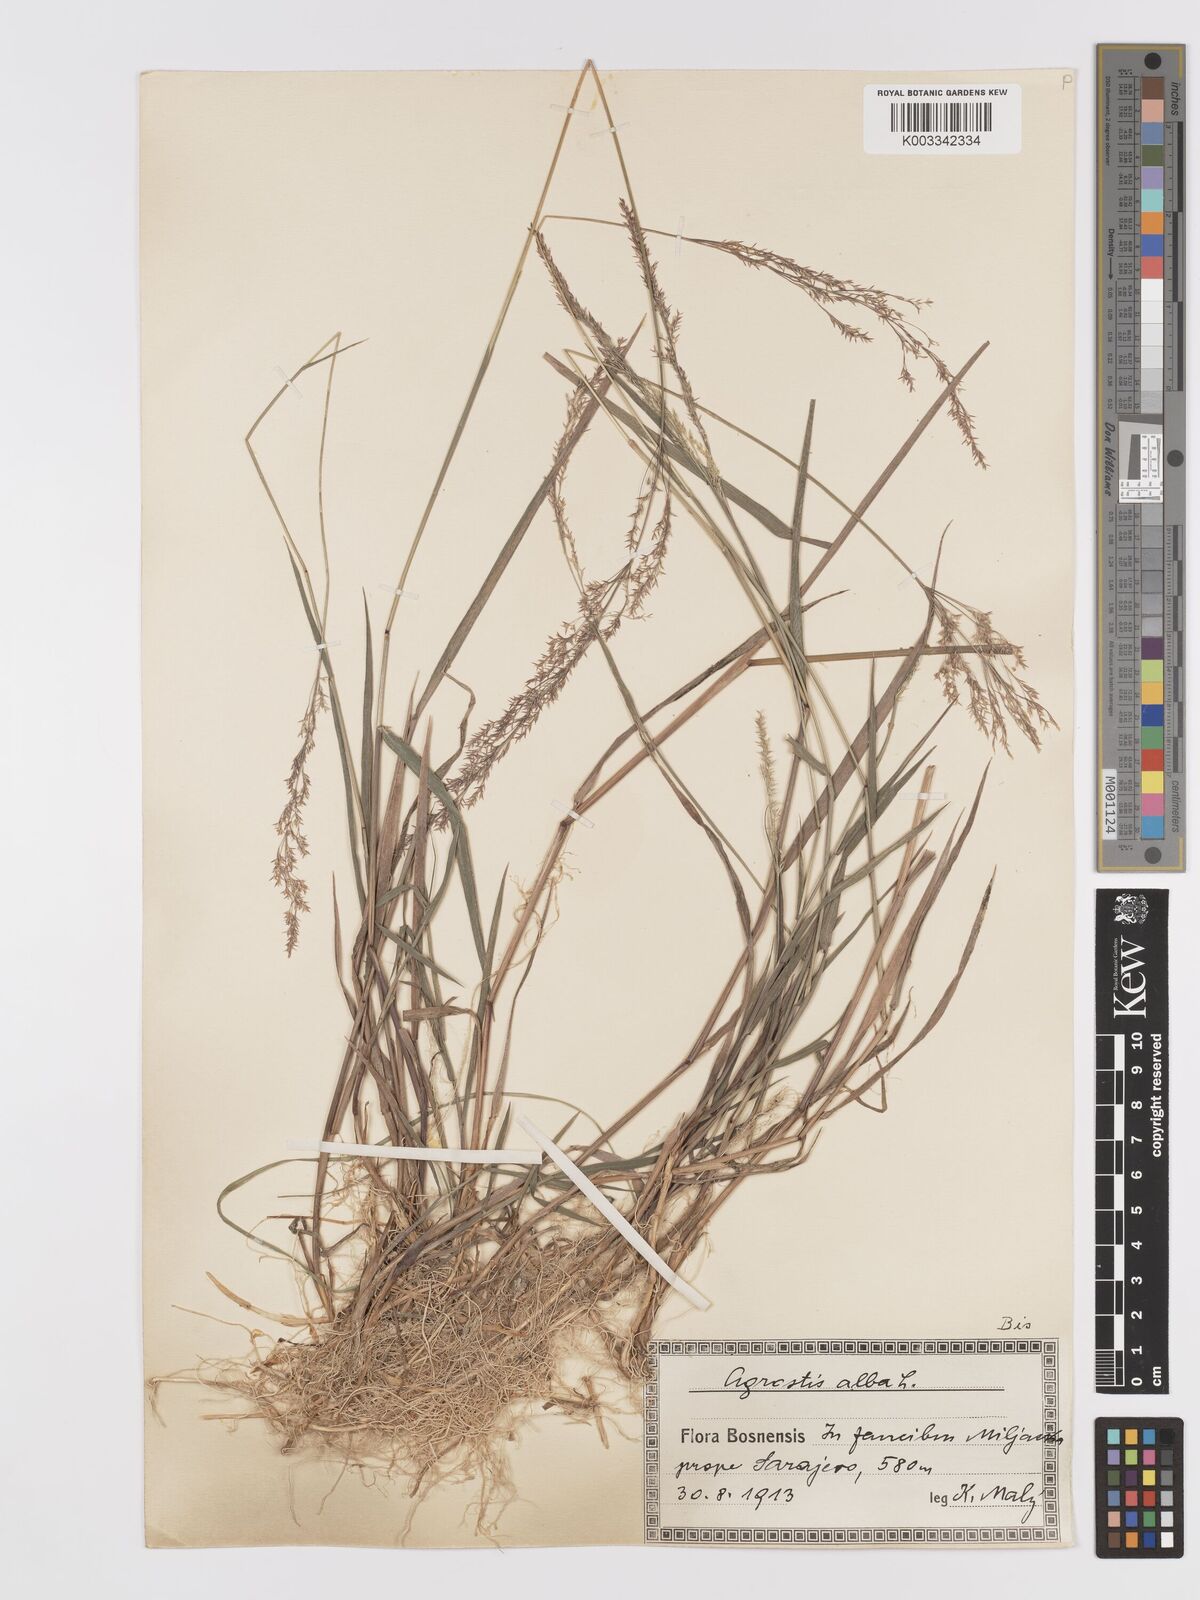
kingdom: Plantae
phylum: Tracheophyta
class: Liliopsida
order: Poales
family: Poaceae
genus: Agrostis
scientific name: Agrostis gigantea
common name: Black bent
